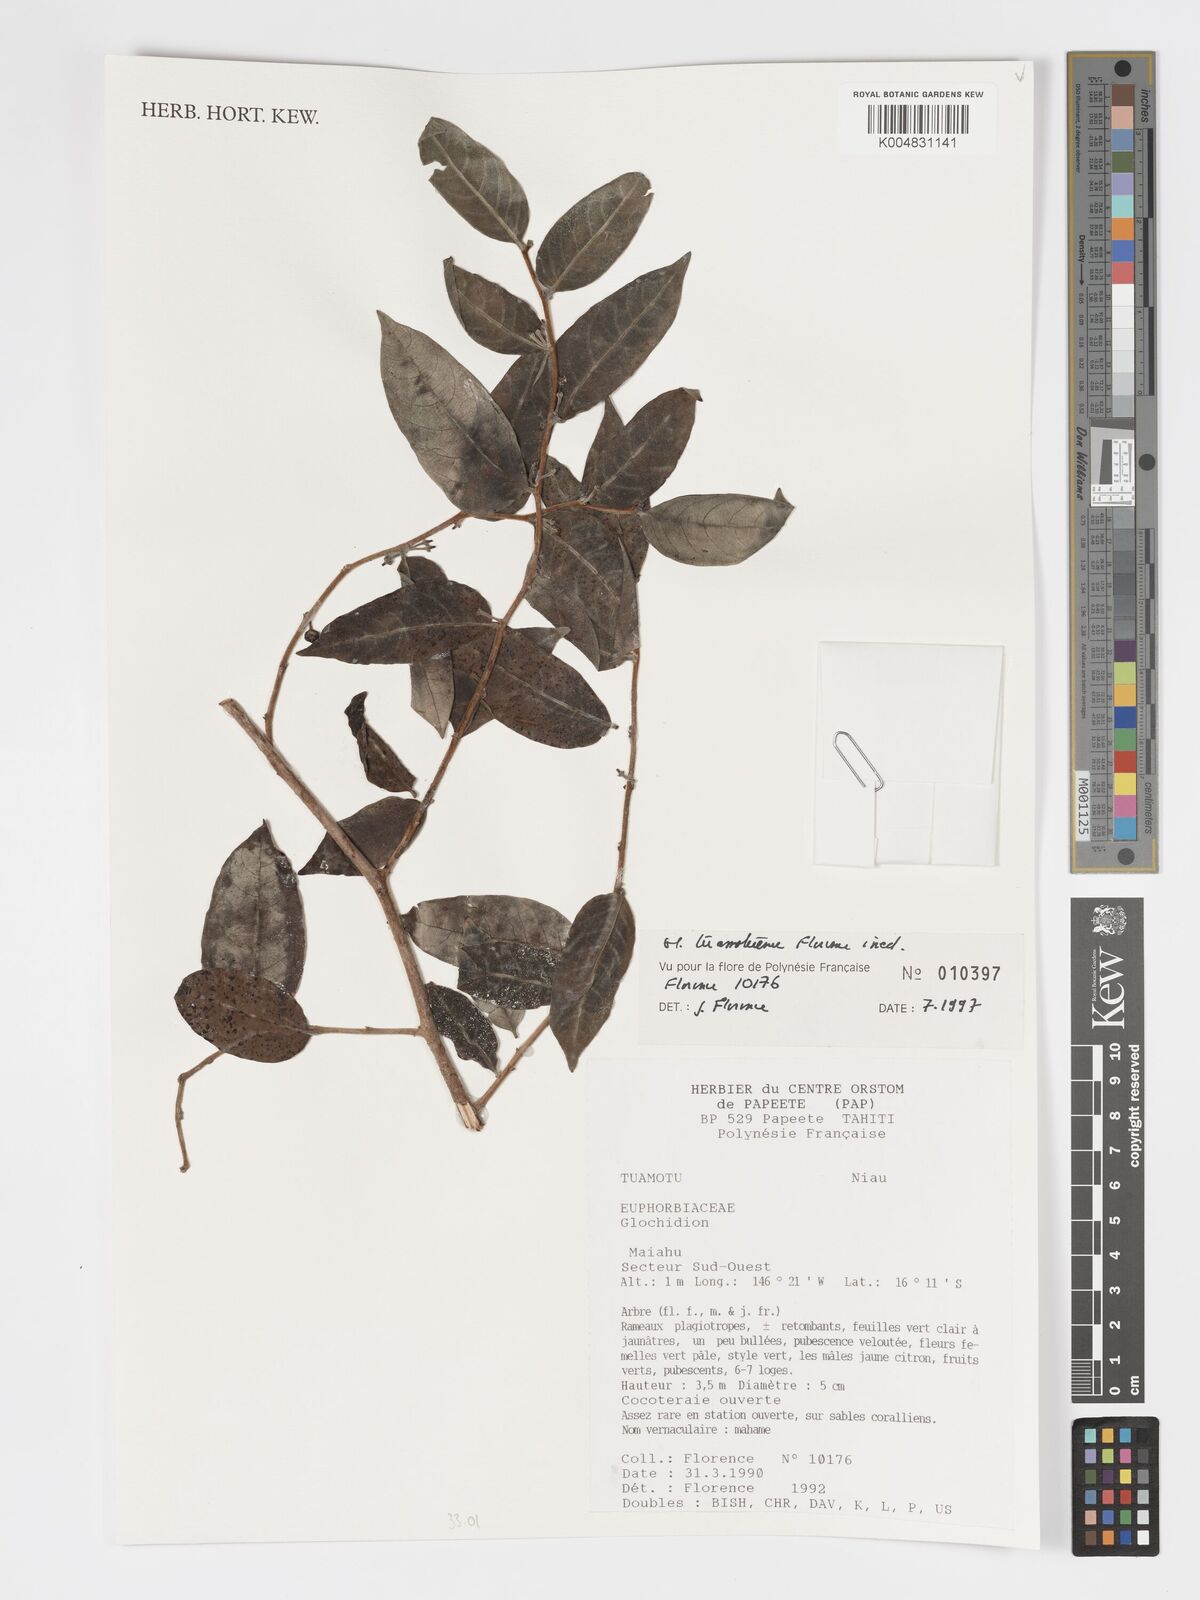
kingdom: Plantae
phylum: Tracheophyta
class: Magnoliopsida
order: Malpighiales
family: Phyllanthaceae
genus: Glochidion
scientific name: Glochidion tuamotuense
